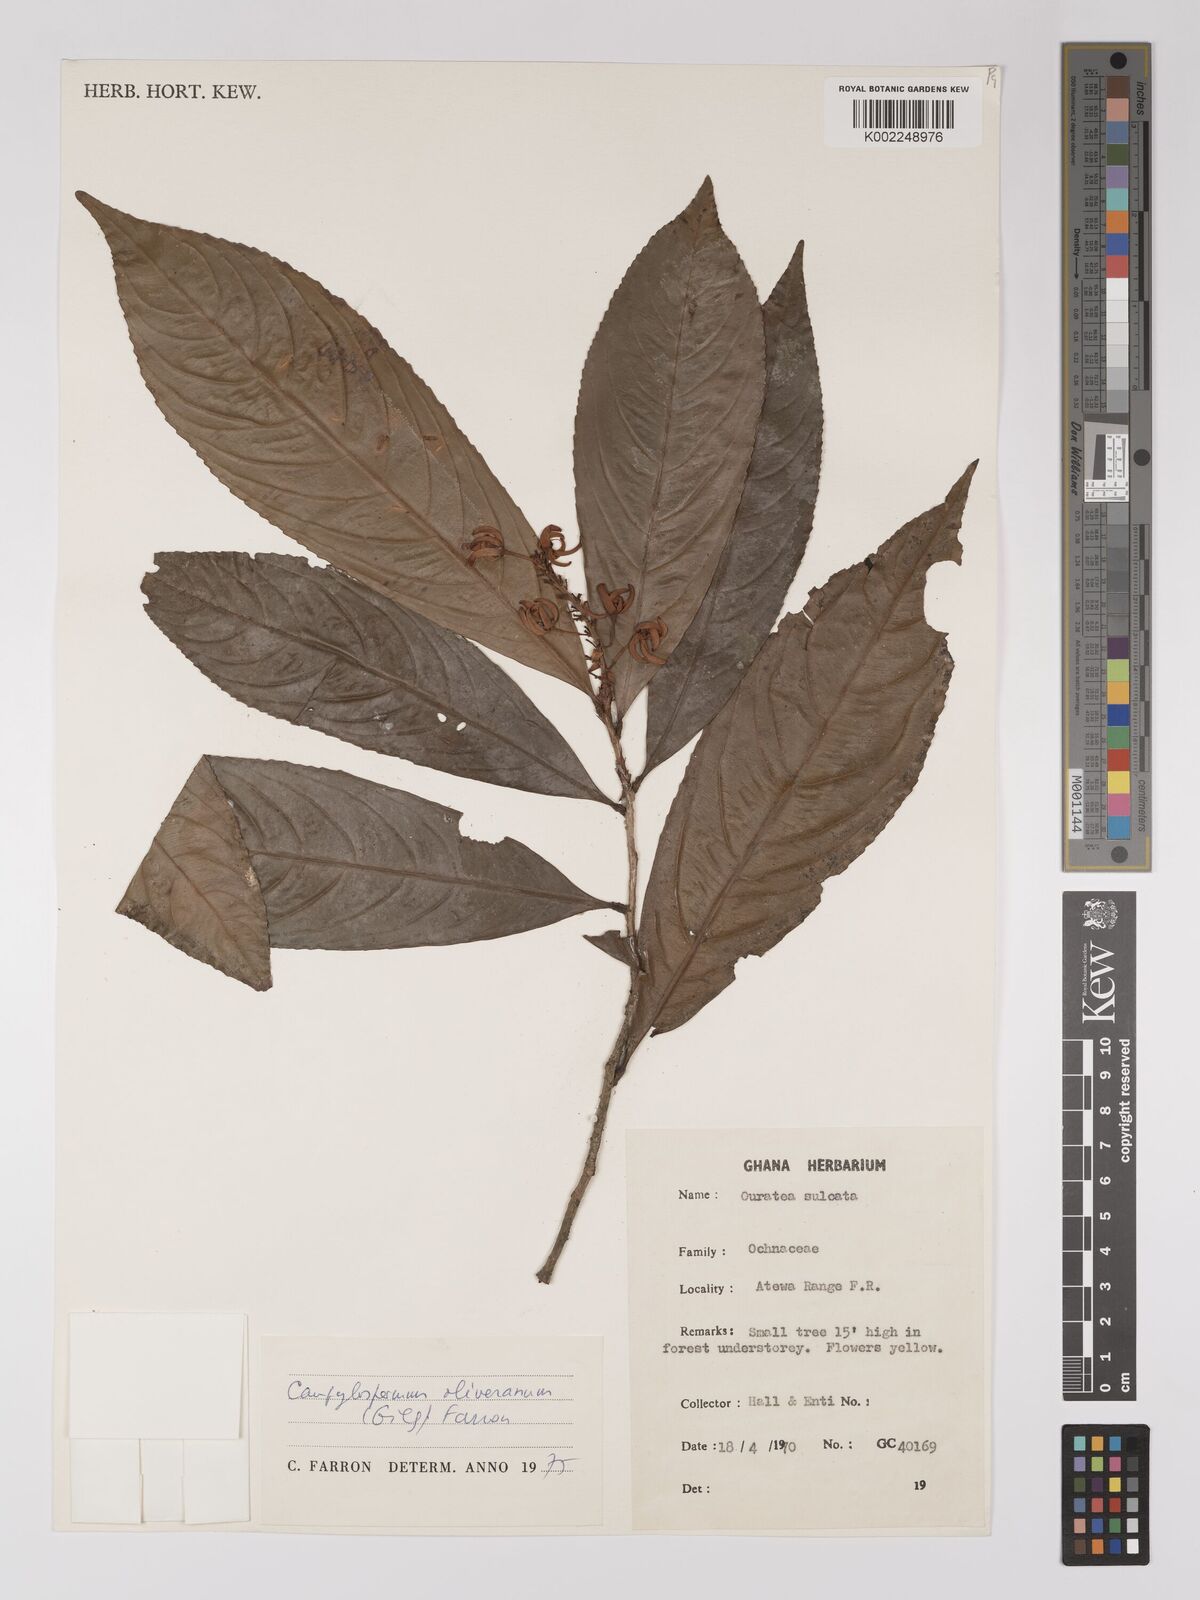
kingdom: Plantae
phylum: Tracheophyta
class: Magnoliopsida
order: Malpighiales
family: Ochnaceae
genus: Campylospermum
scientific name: Campylospermum oliverianum
